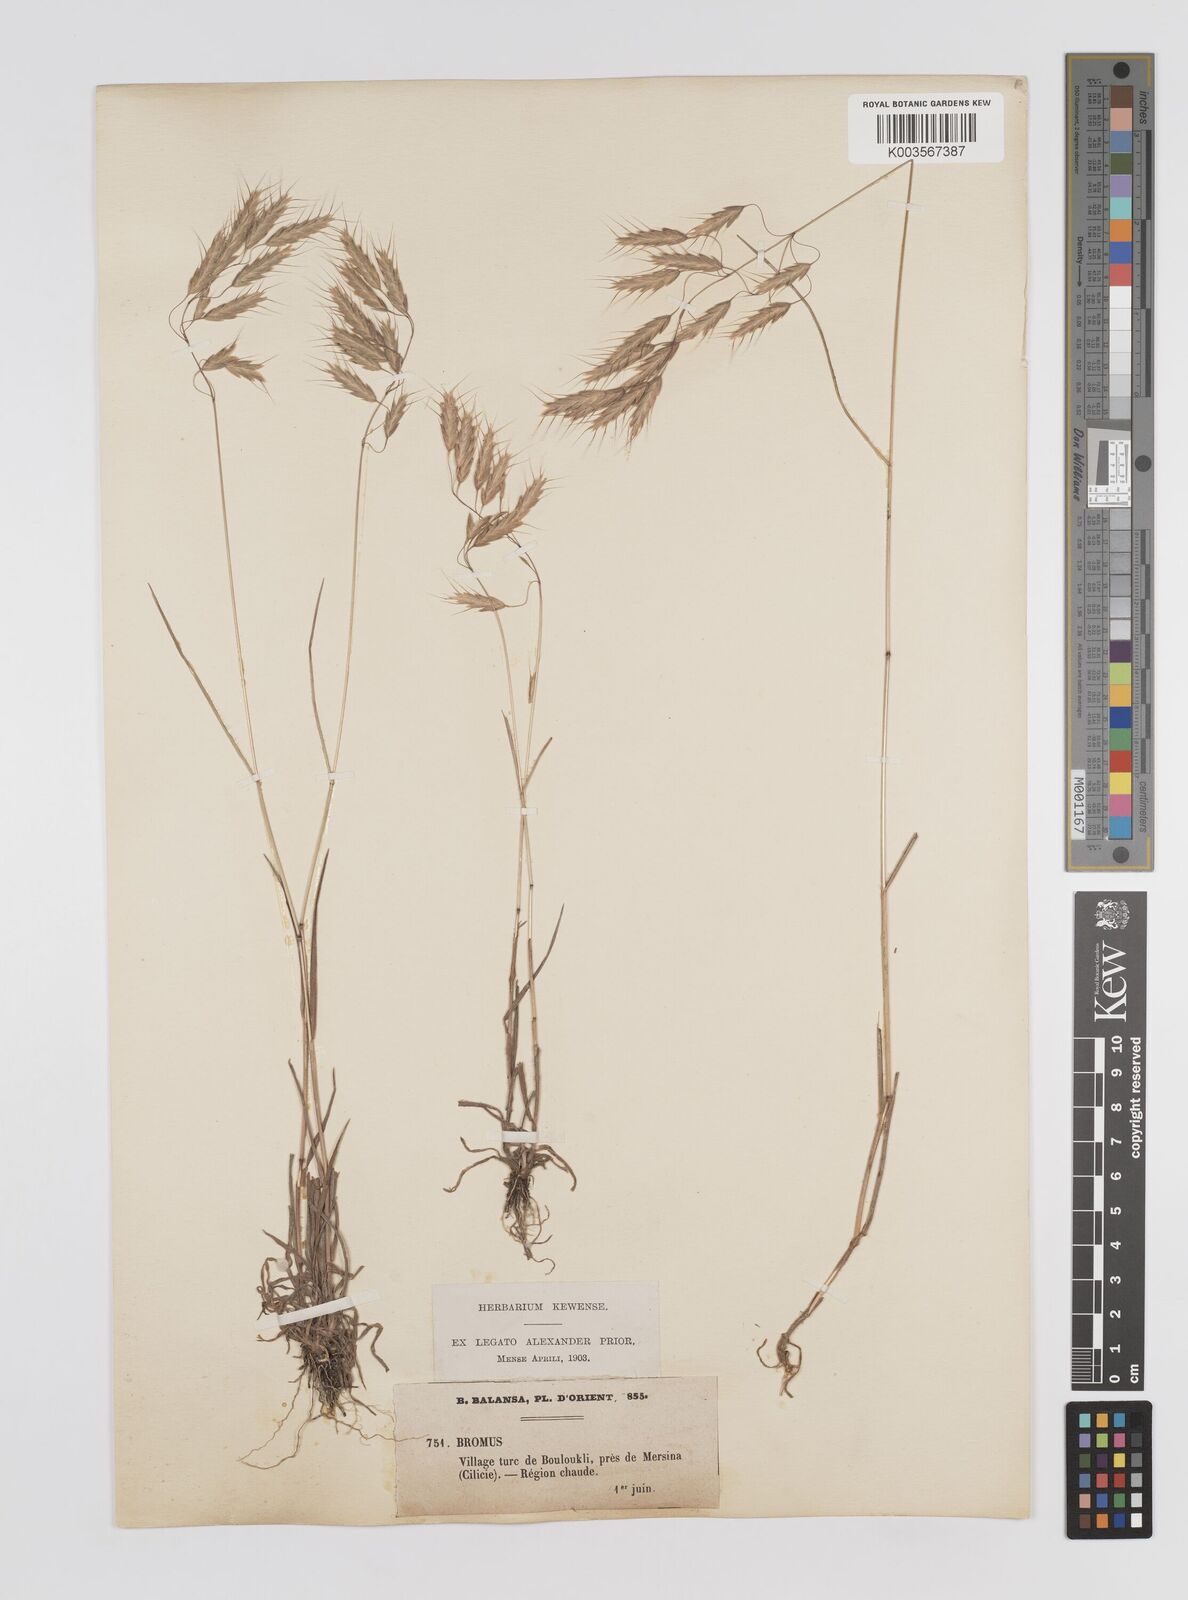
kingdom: Plantae
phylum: Tracheophyta
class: Liliopsida
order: Poales
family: Poaceae
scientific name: Poaceae
